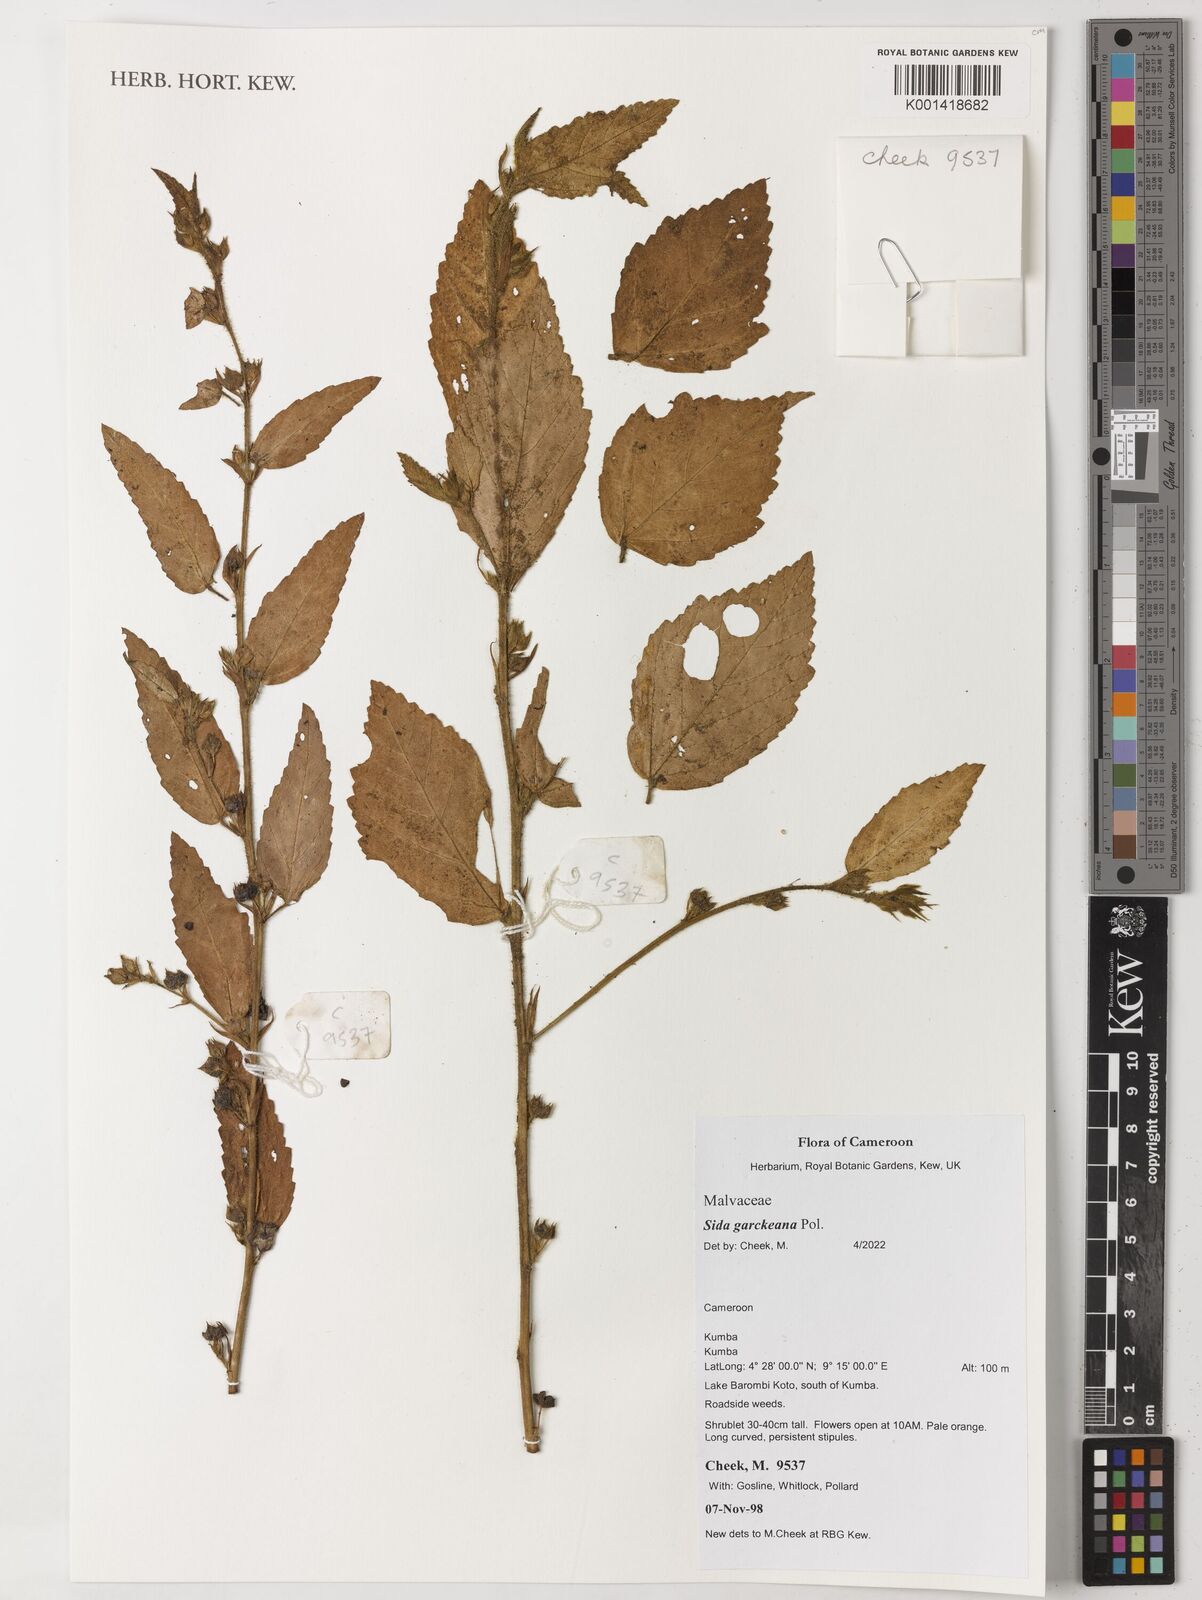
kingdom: Plantae
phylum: Tracheophyta
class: Magnoliopsida
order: Malvales
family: Malvaceae
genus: Sida
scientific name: Sida acuta
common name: Common wireweed
